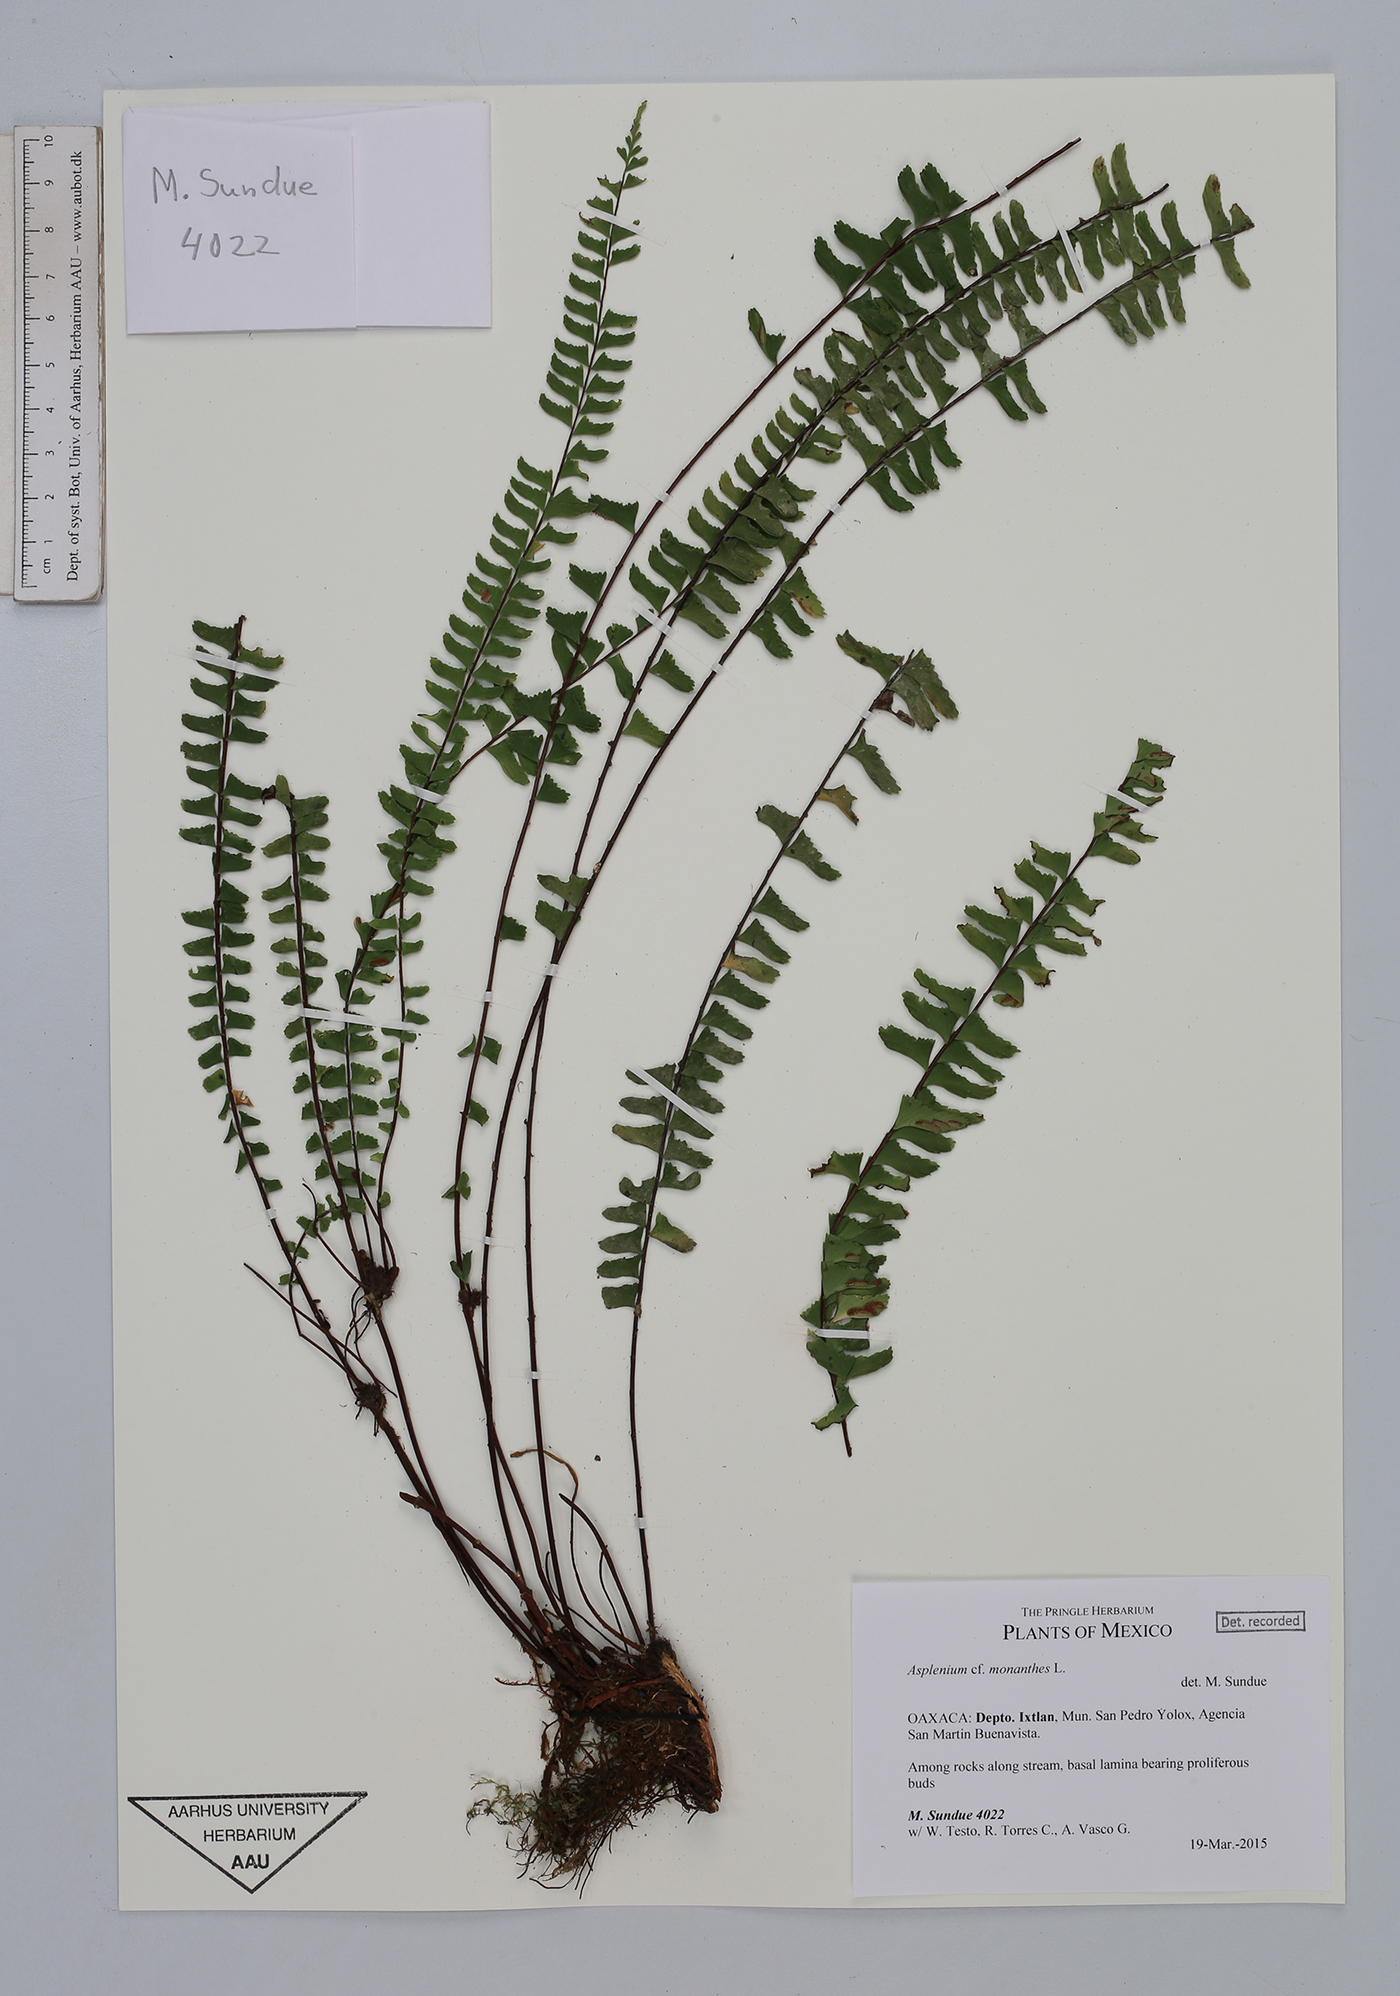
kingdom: Plantae
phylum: Tracheophyta
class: Polypodiopsida
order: Polypodiales
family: Aspleniaceae
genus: Asplenium
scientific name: Asplenium monanthes
